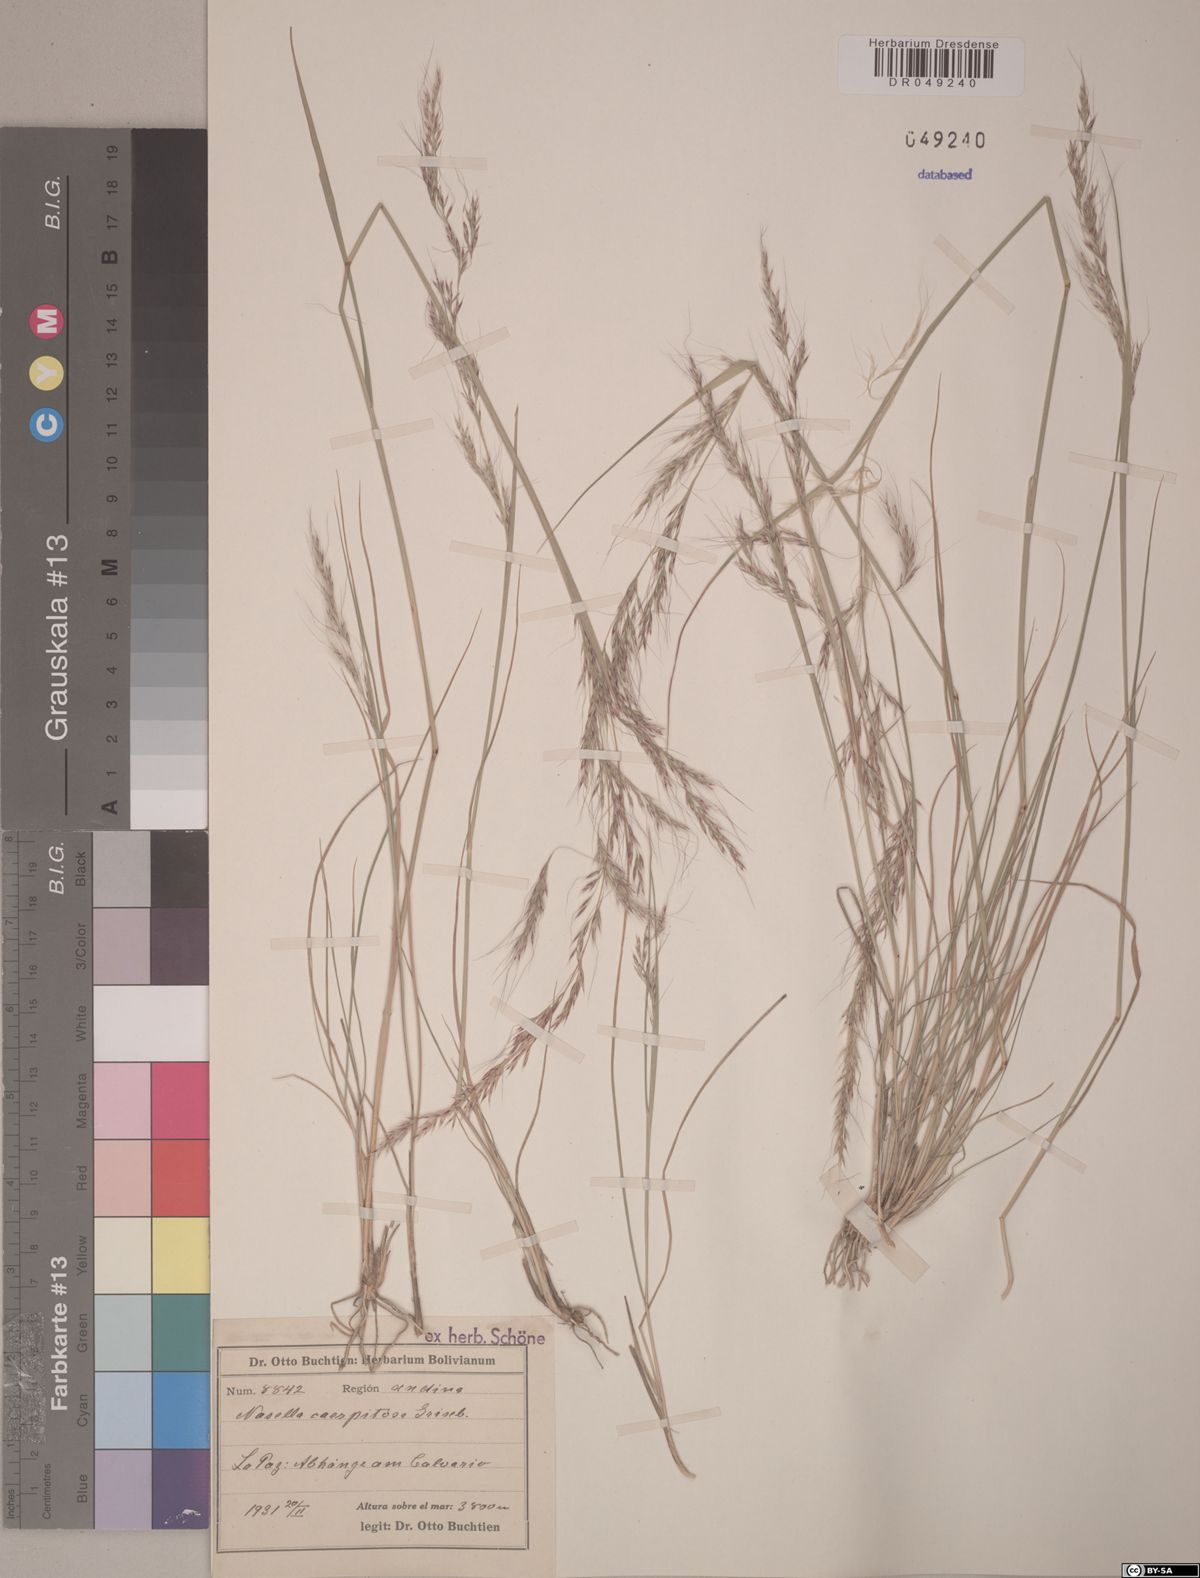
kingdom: Plantae
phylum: Tracheophyta
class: Liliopsida
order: Poales
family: Poaceae
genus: Nassella
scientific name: Nassella caespitosa
